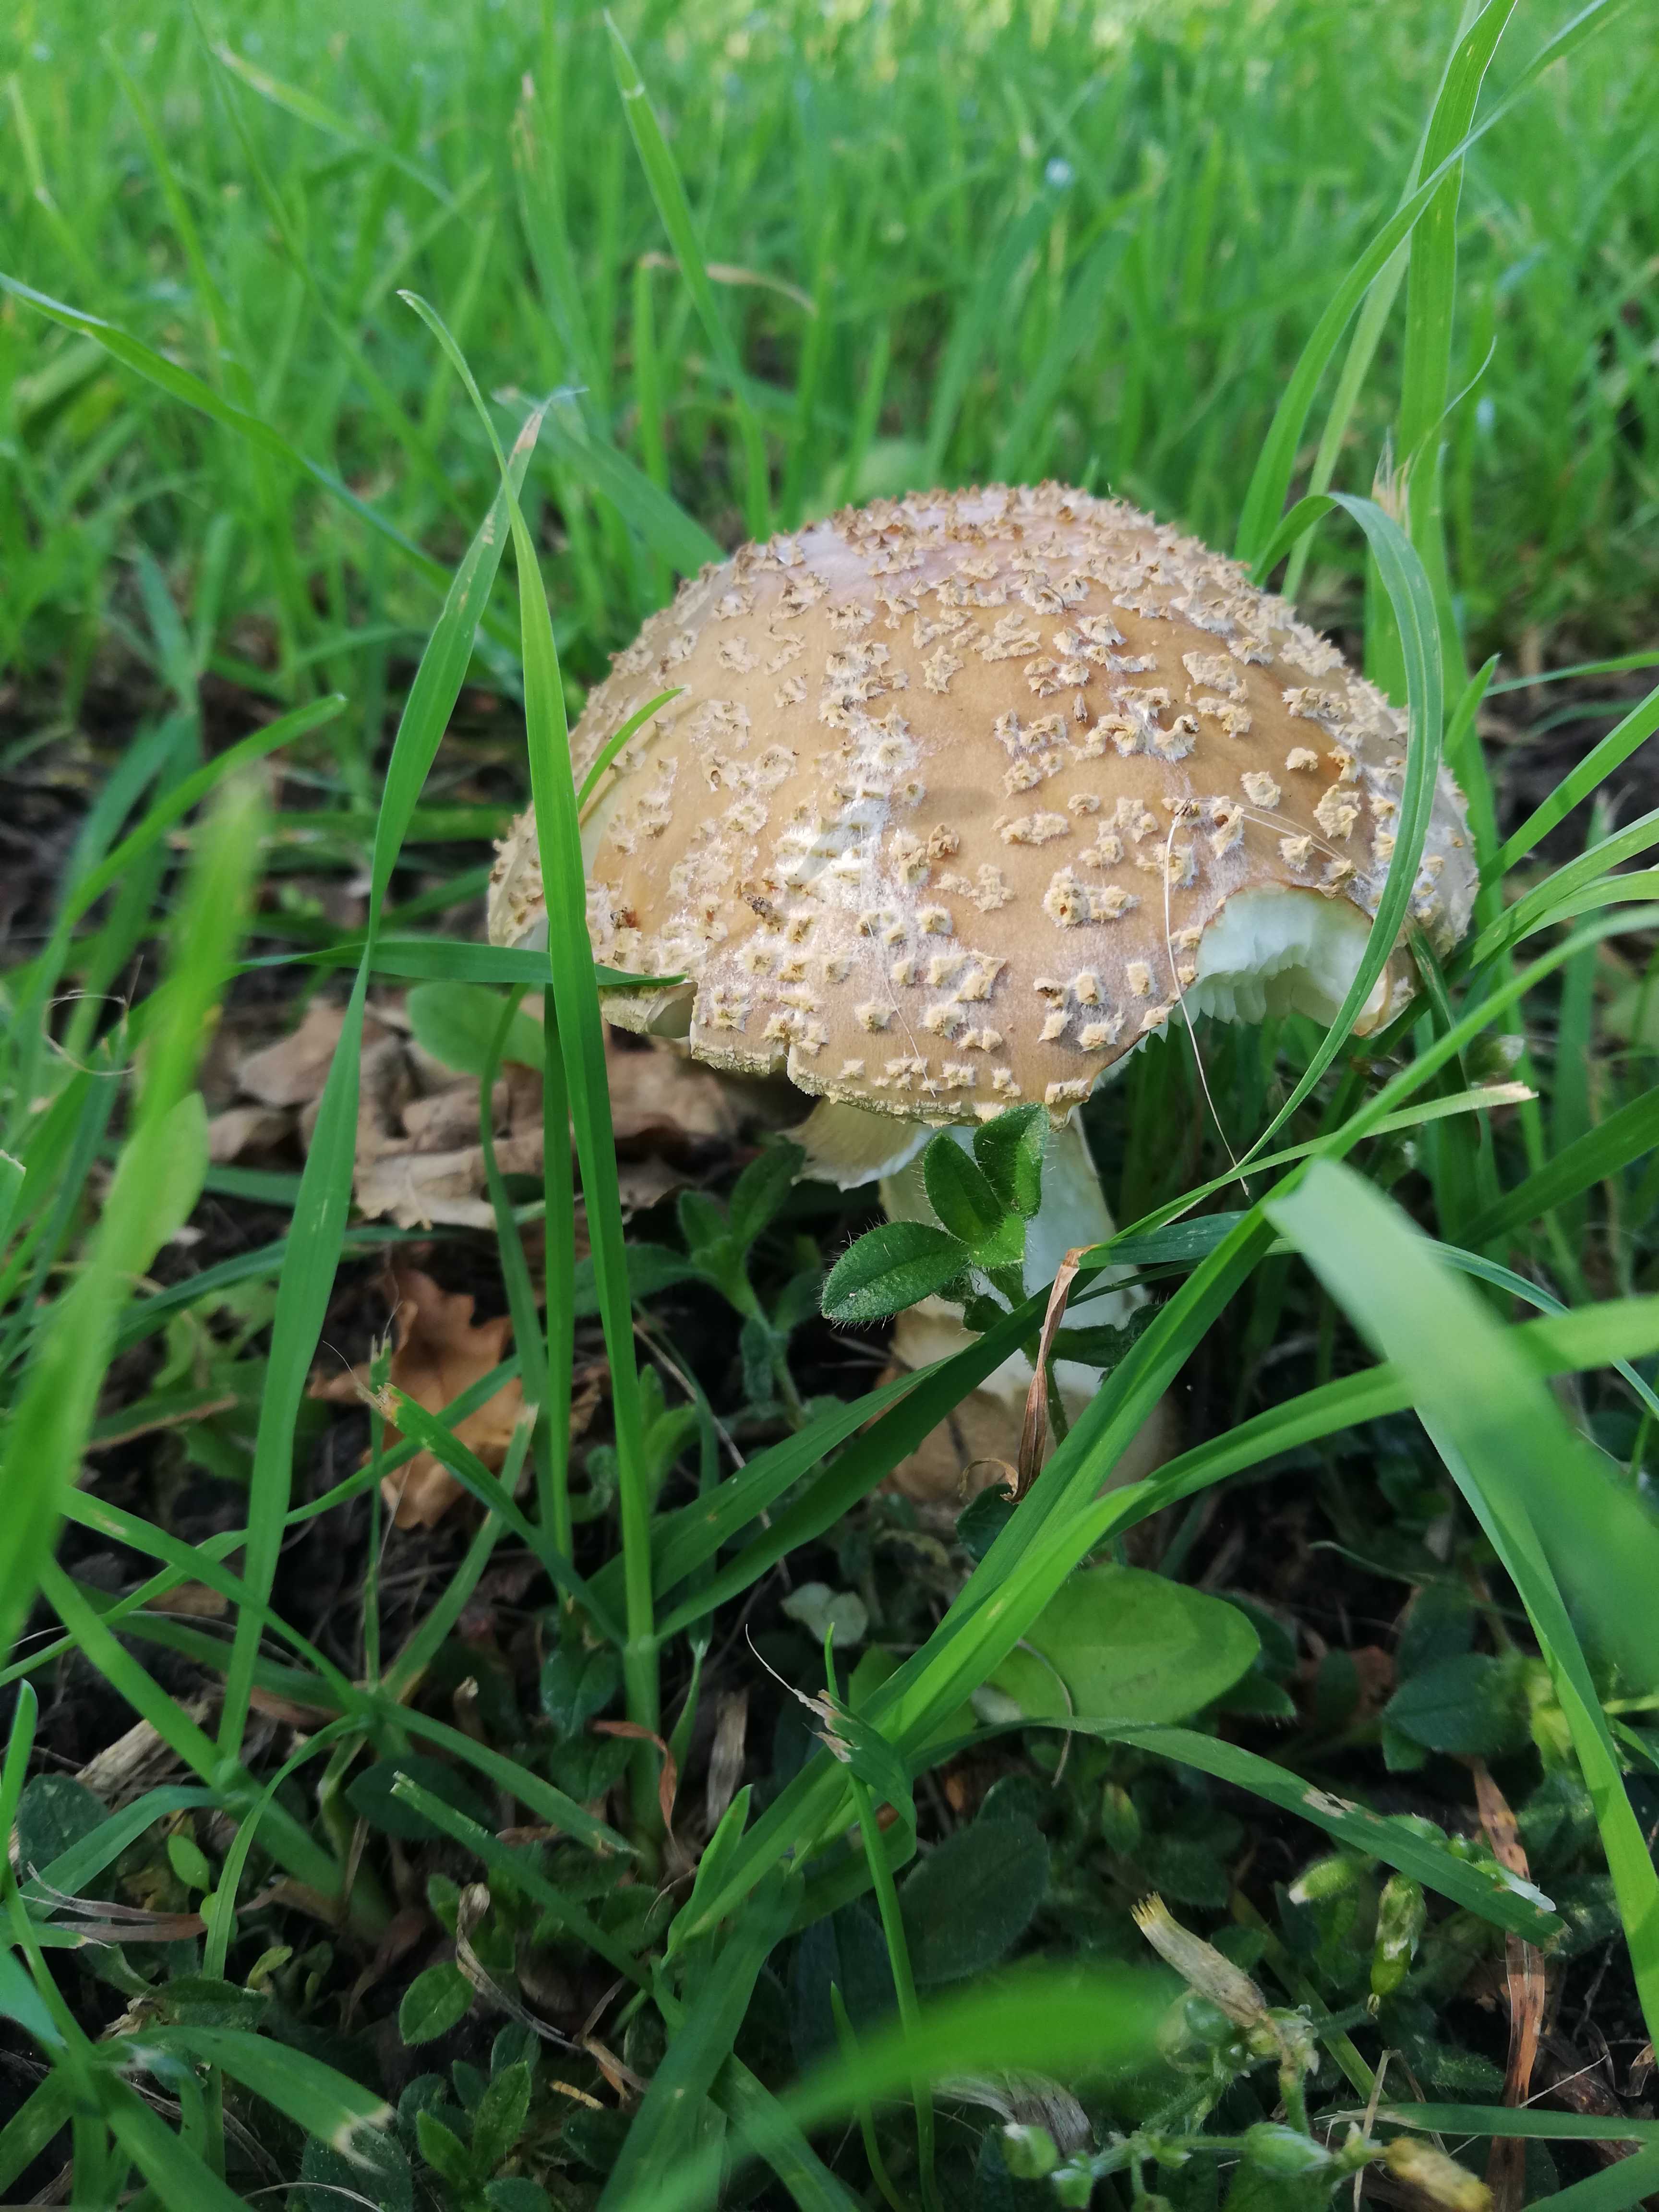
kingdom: Fungi
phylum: Basidiomycota
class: Agaricomycetes
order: Agaricales
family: Amanitaceae
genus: Amanita
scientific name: Amanita franchetii
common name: gulrandet fluesvamp
